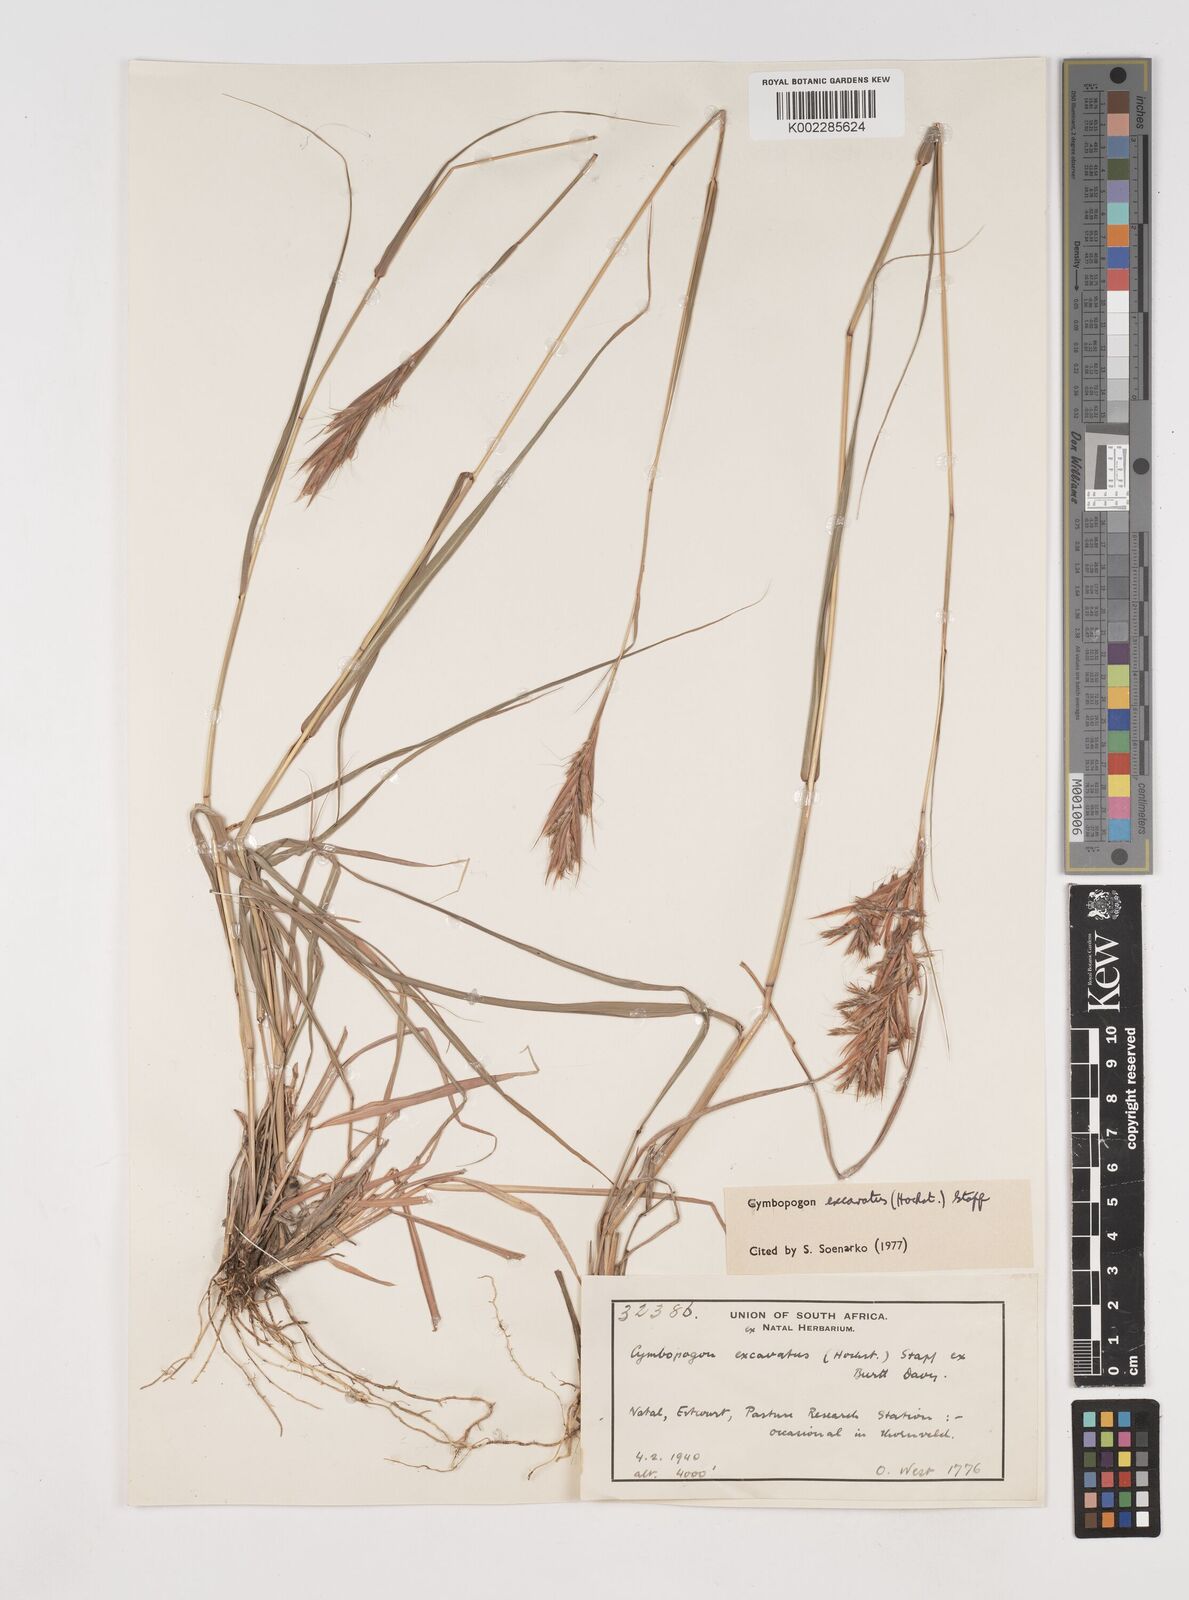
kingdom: Plantae
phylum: Tracheophyta
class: Liliopsida
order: Poales
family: Poaceae
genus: Cymbopogon
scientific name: Cymbopogon caesius
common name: Kachi grass
